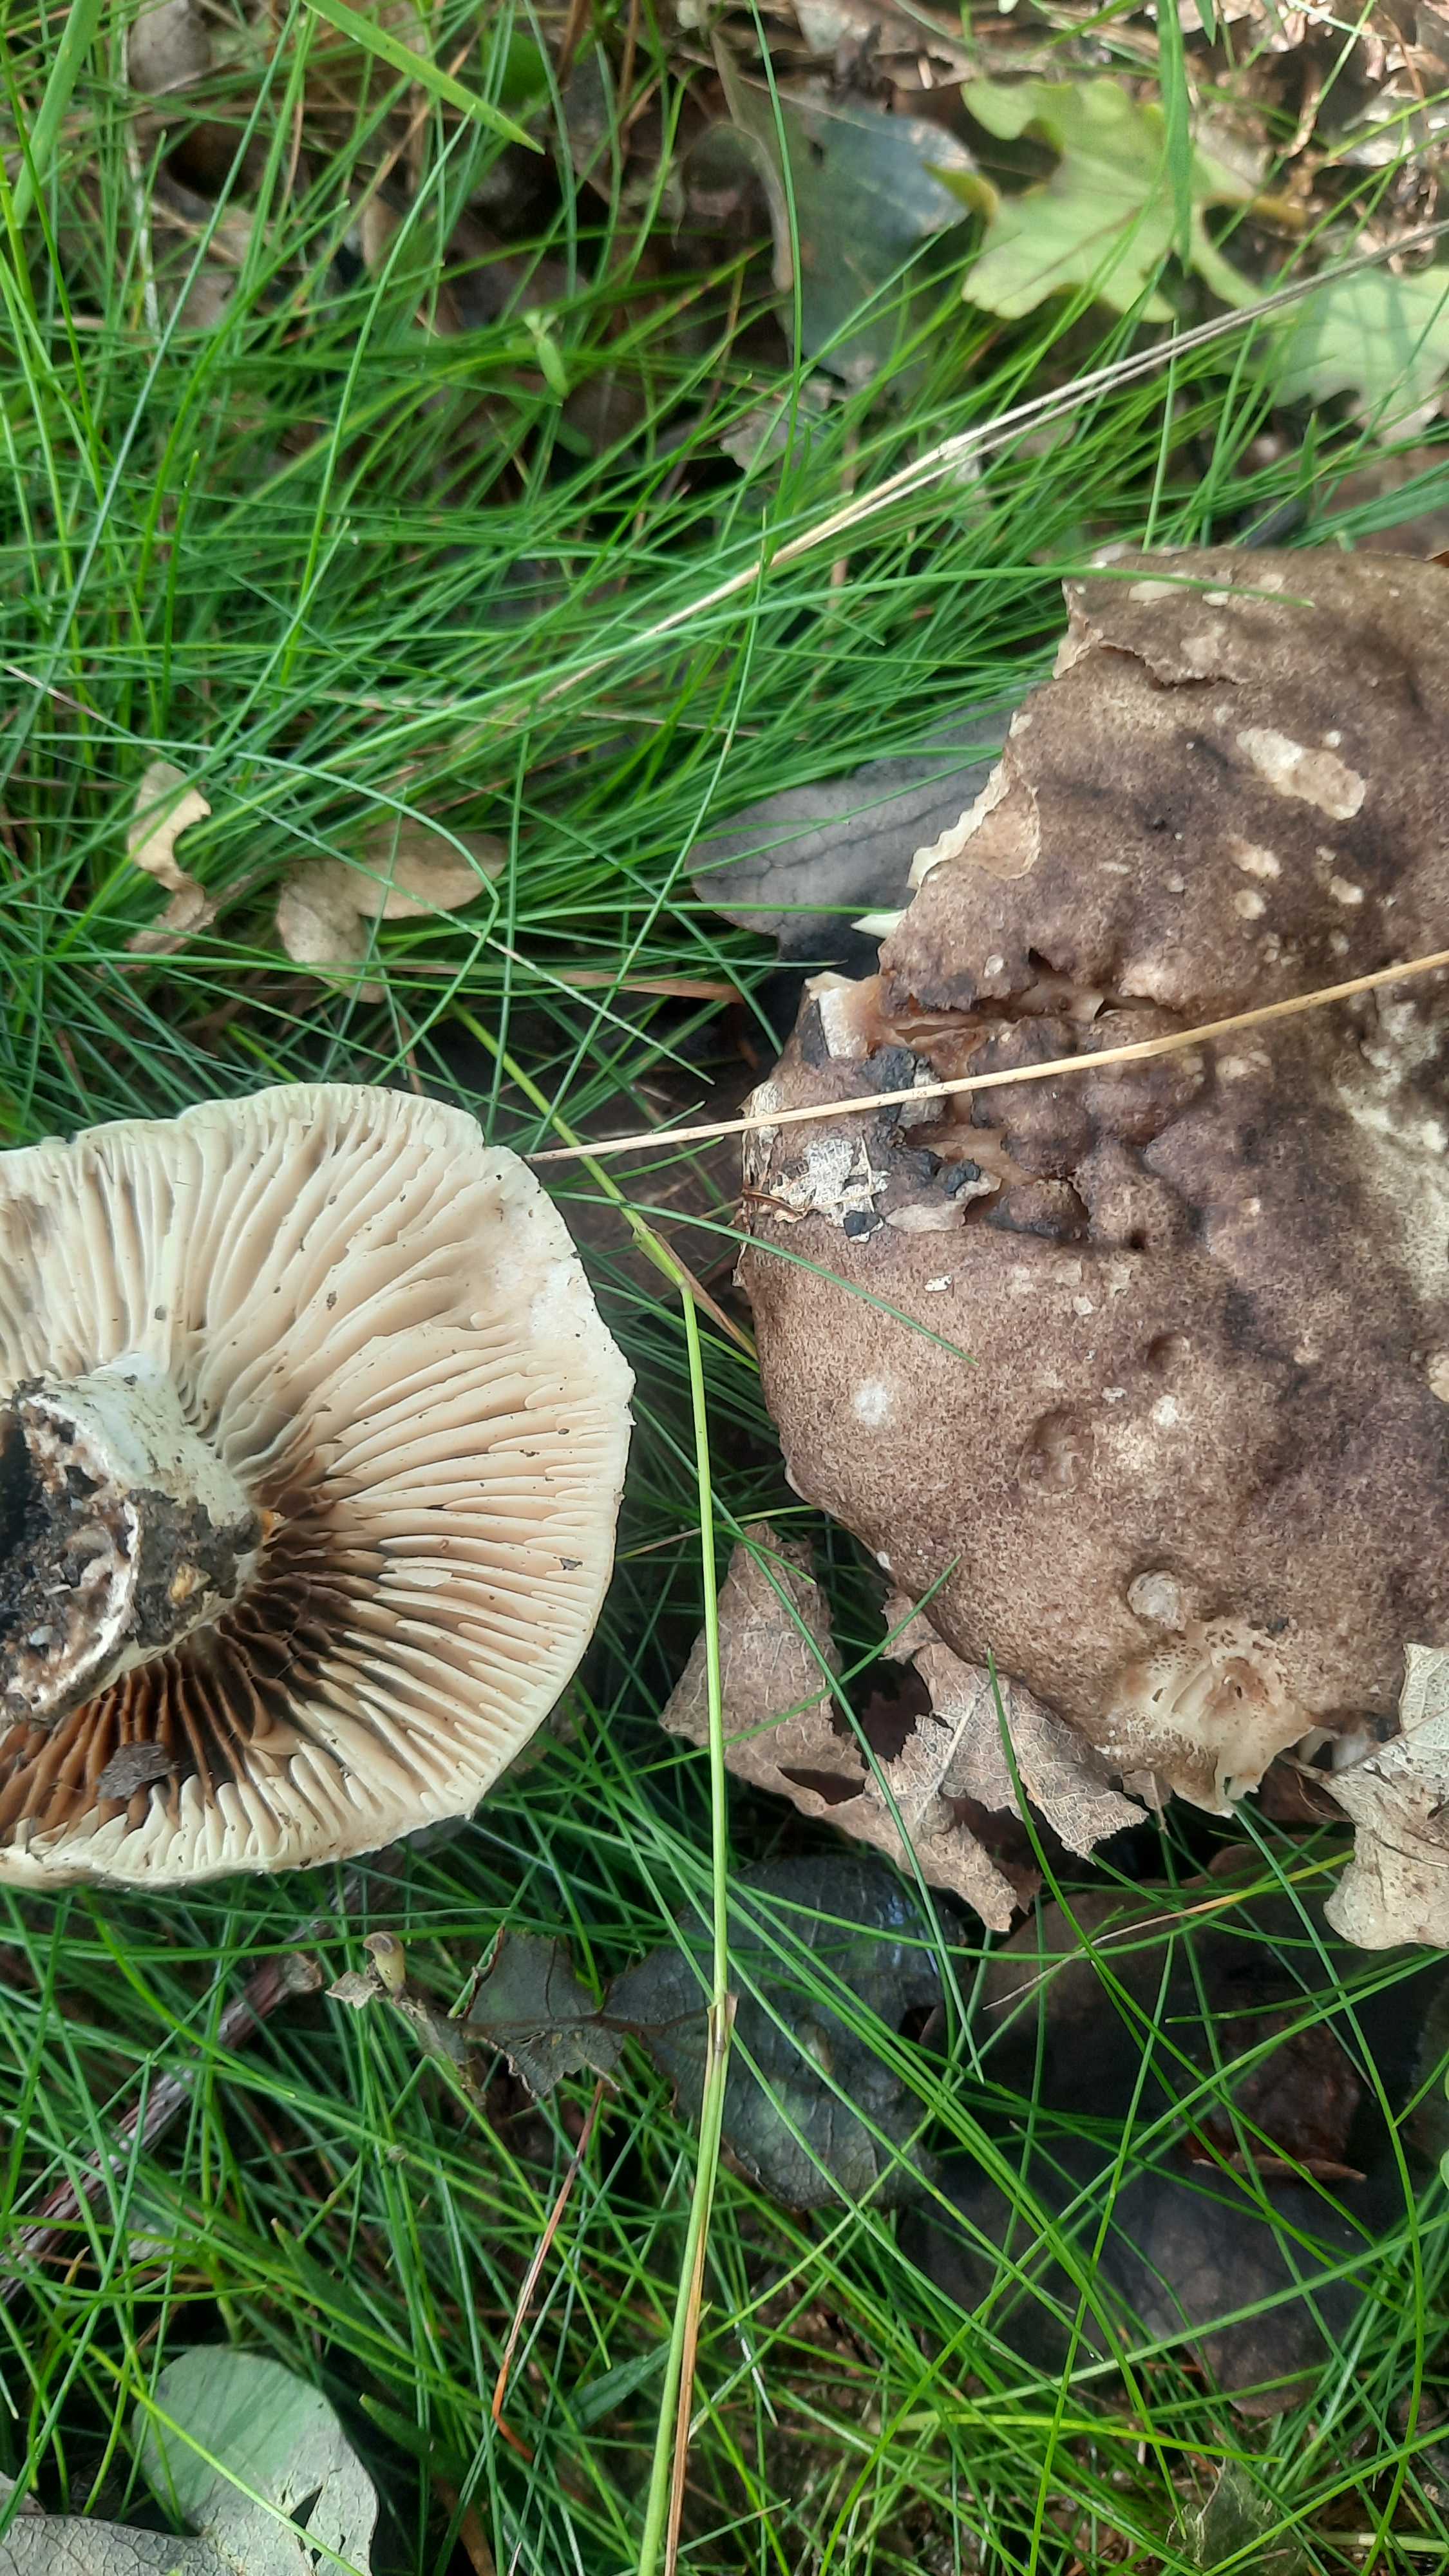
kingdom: Fungi
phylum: Basidiomycota
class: Agaricomycetes
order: Russulales
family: Russulaceae
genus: Russula
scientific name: Russula adusta
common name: sværtende skørhat
